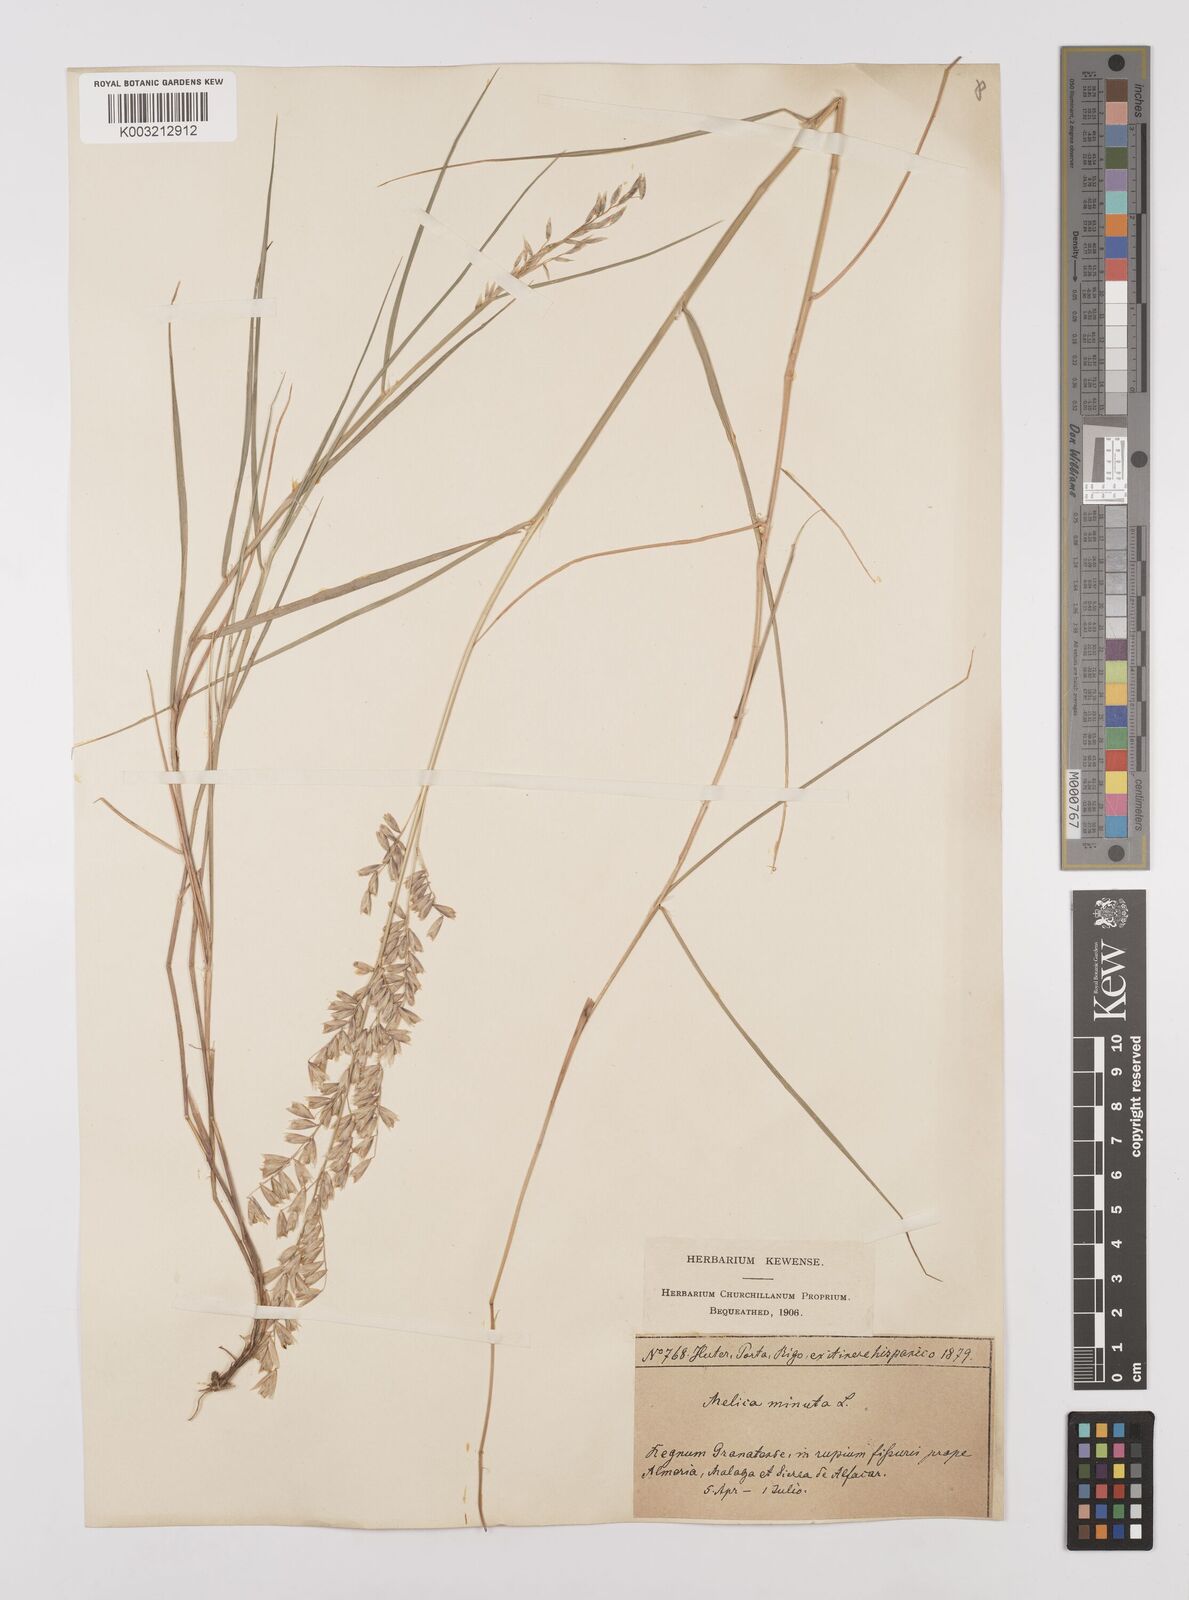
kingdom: Plantae
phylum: Tracheophyta
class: Liliopsida
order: Poales
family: Poaceae
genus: Melica
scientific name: Melica minuta
